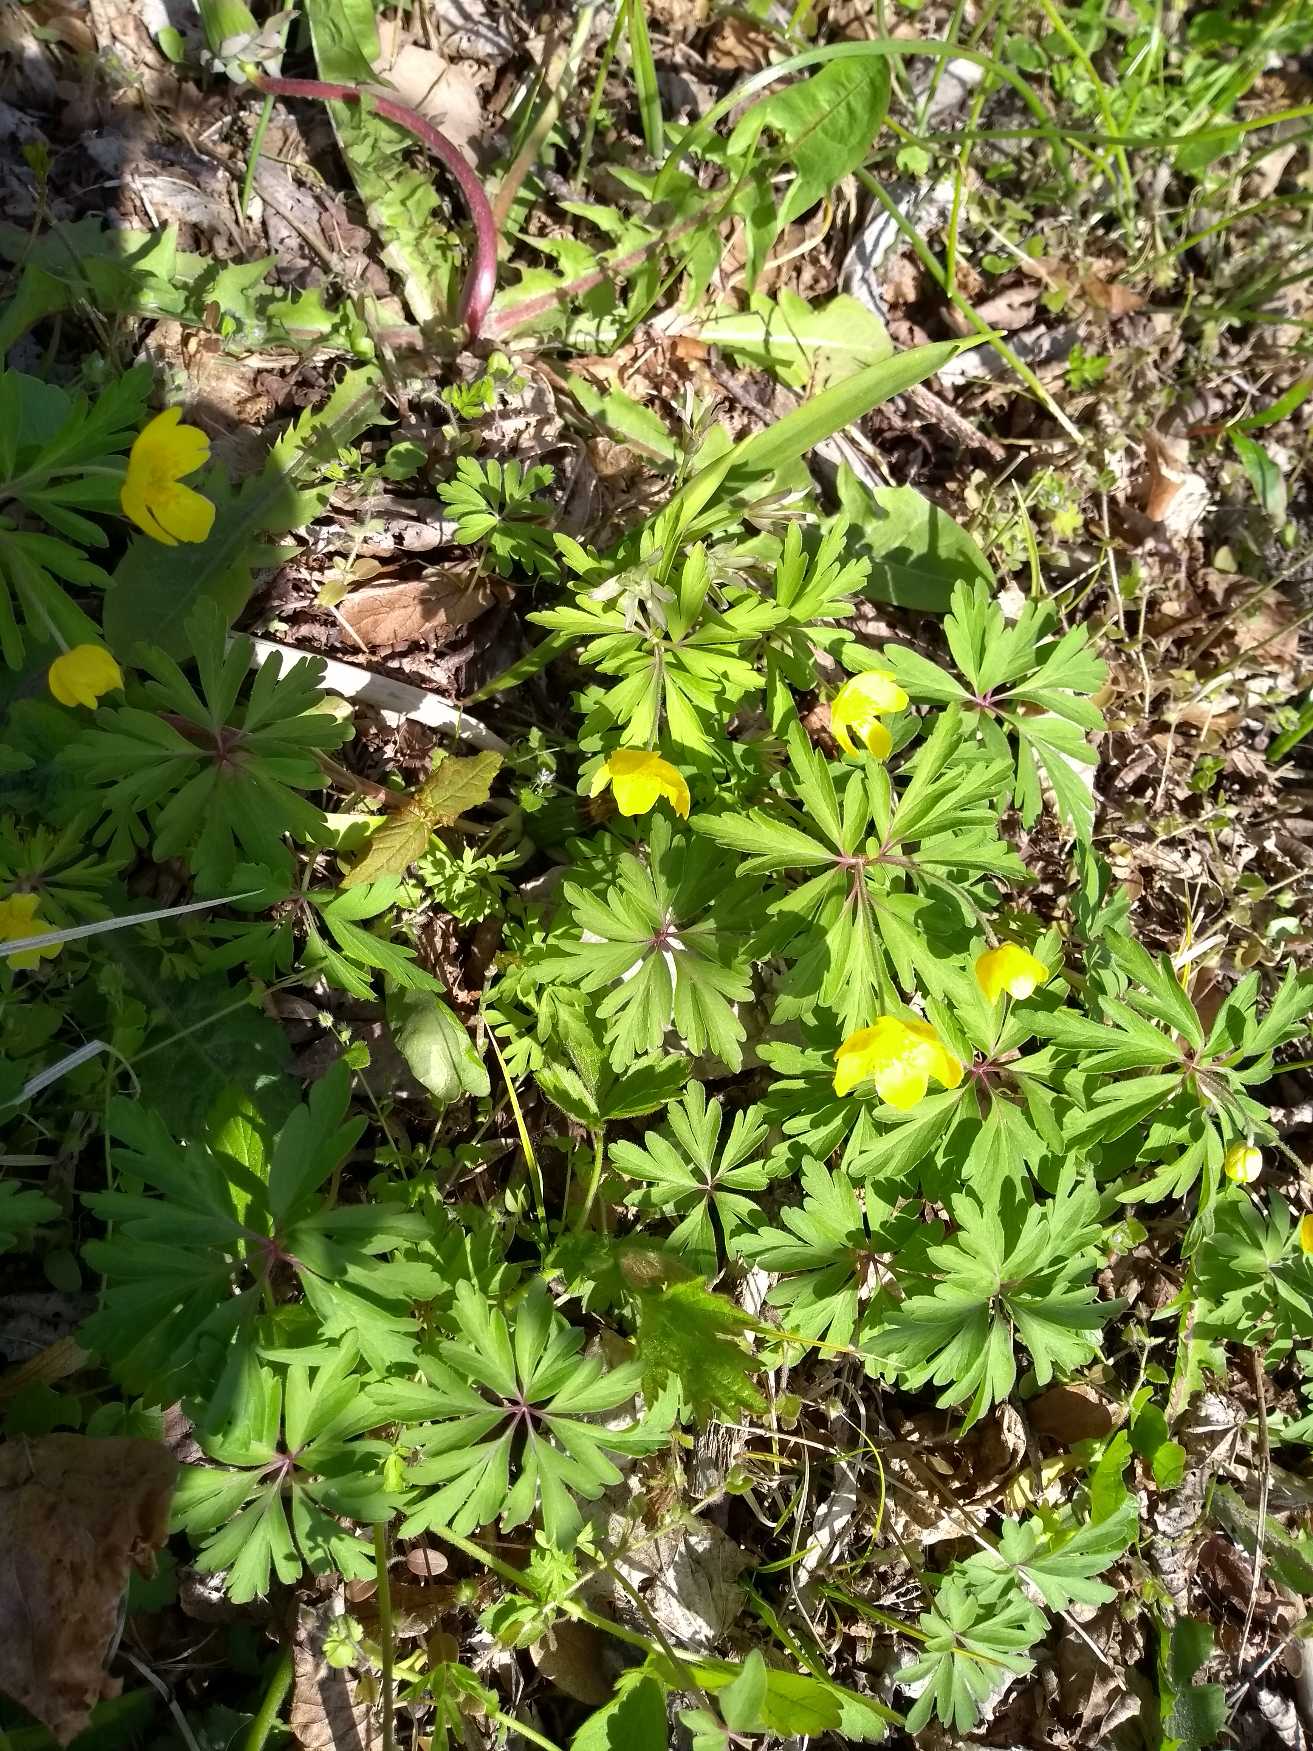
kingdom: Plantae
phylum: Tracheophyta
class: Magnoliopsida
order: Ranunculales
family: Ranunculaceae
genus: Anemone
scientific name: Anemone ranunculoides
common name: Gul anemone
